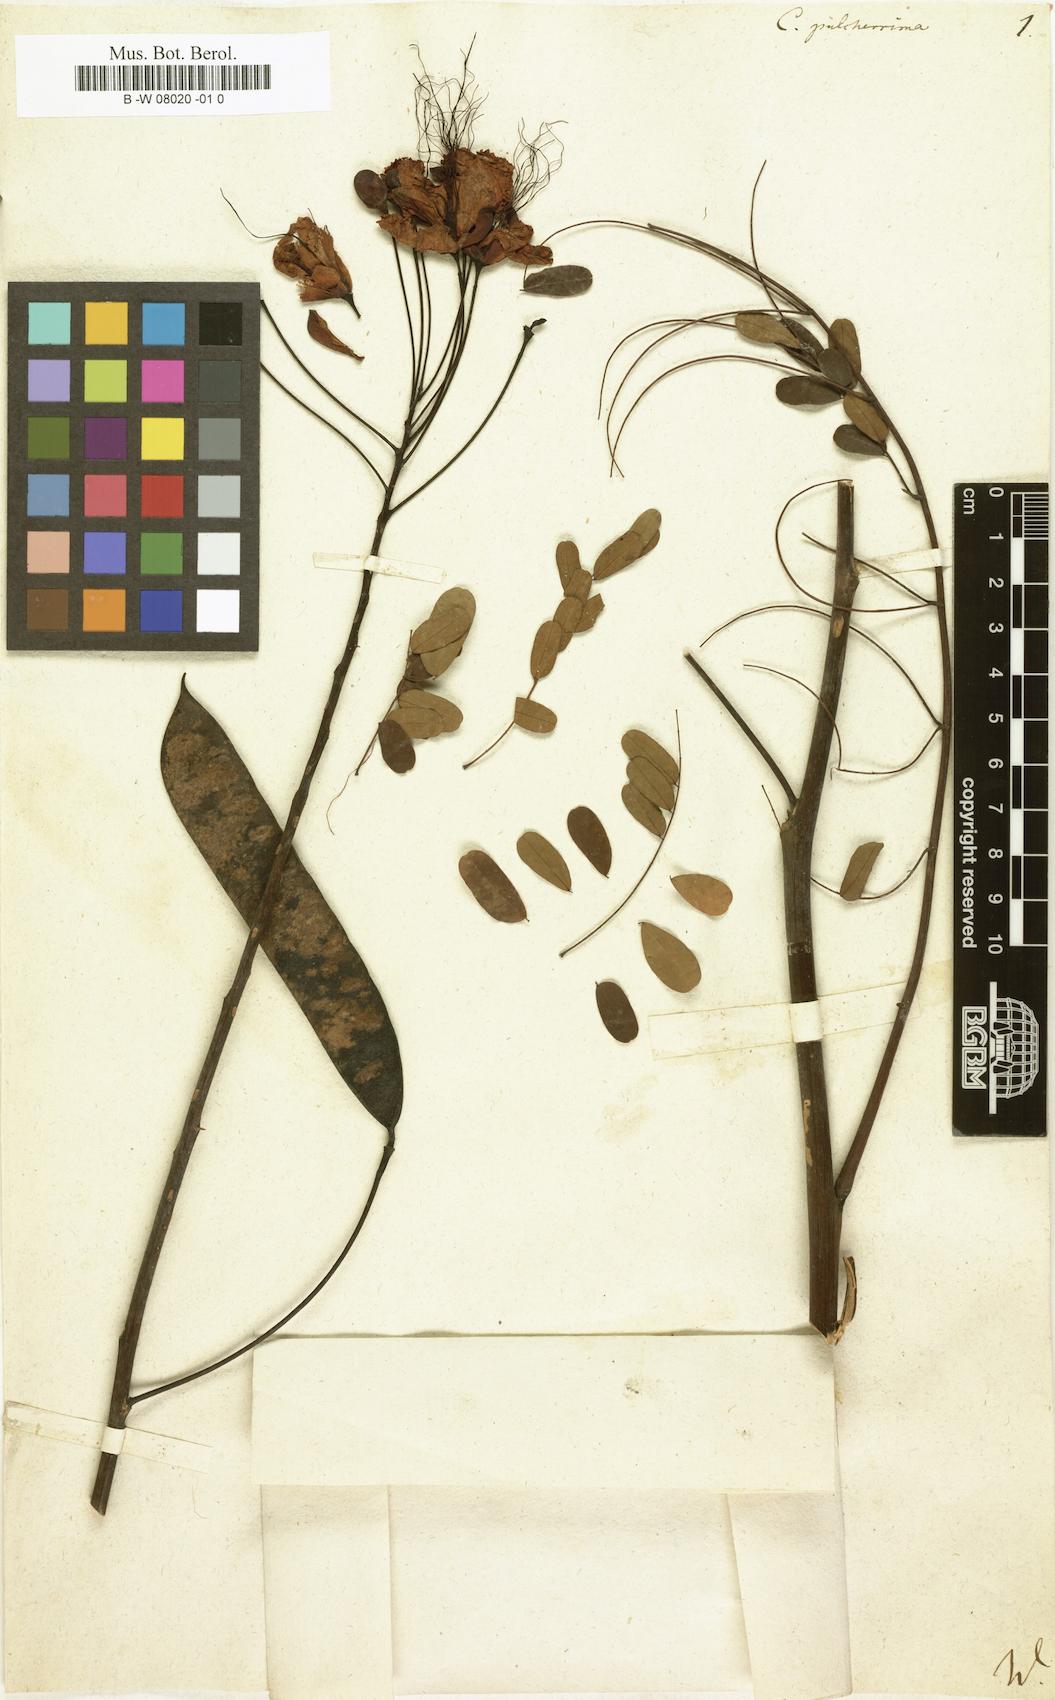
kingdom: Plantae
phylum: Tracheophyta
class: Magnoliopsida
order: Fabales
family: Fabaceae
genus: Caesalpinia
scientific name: Caesalpinia pulcherrima
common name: Pride-of-barbados
